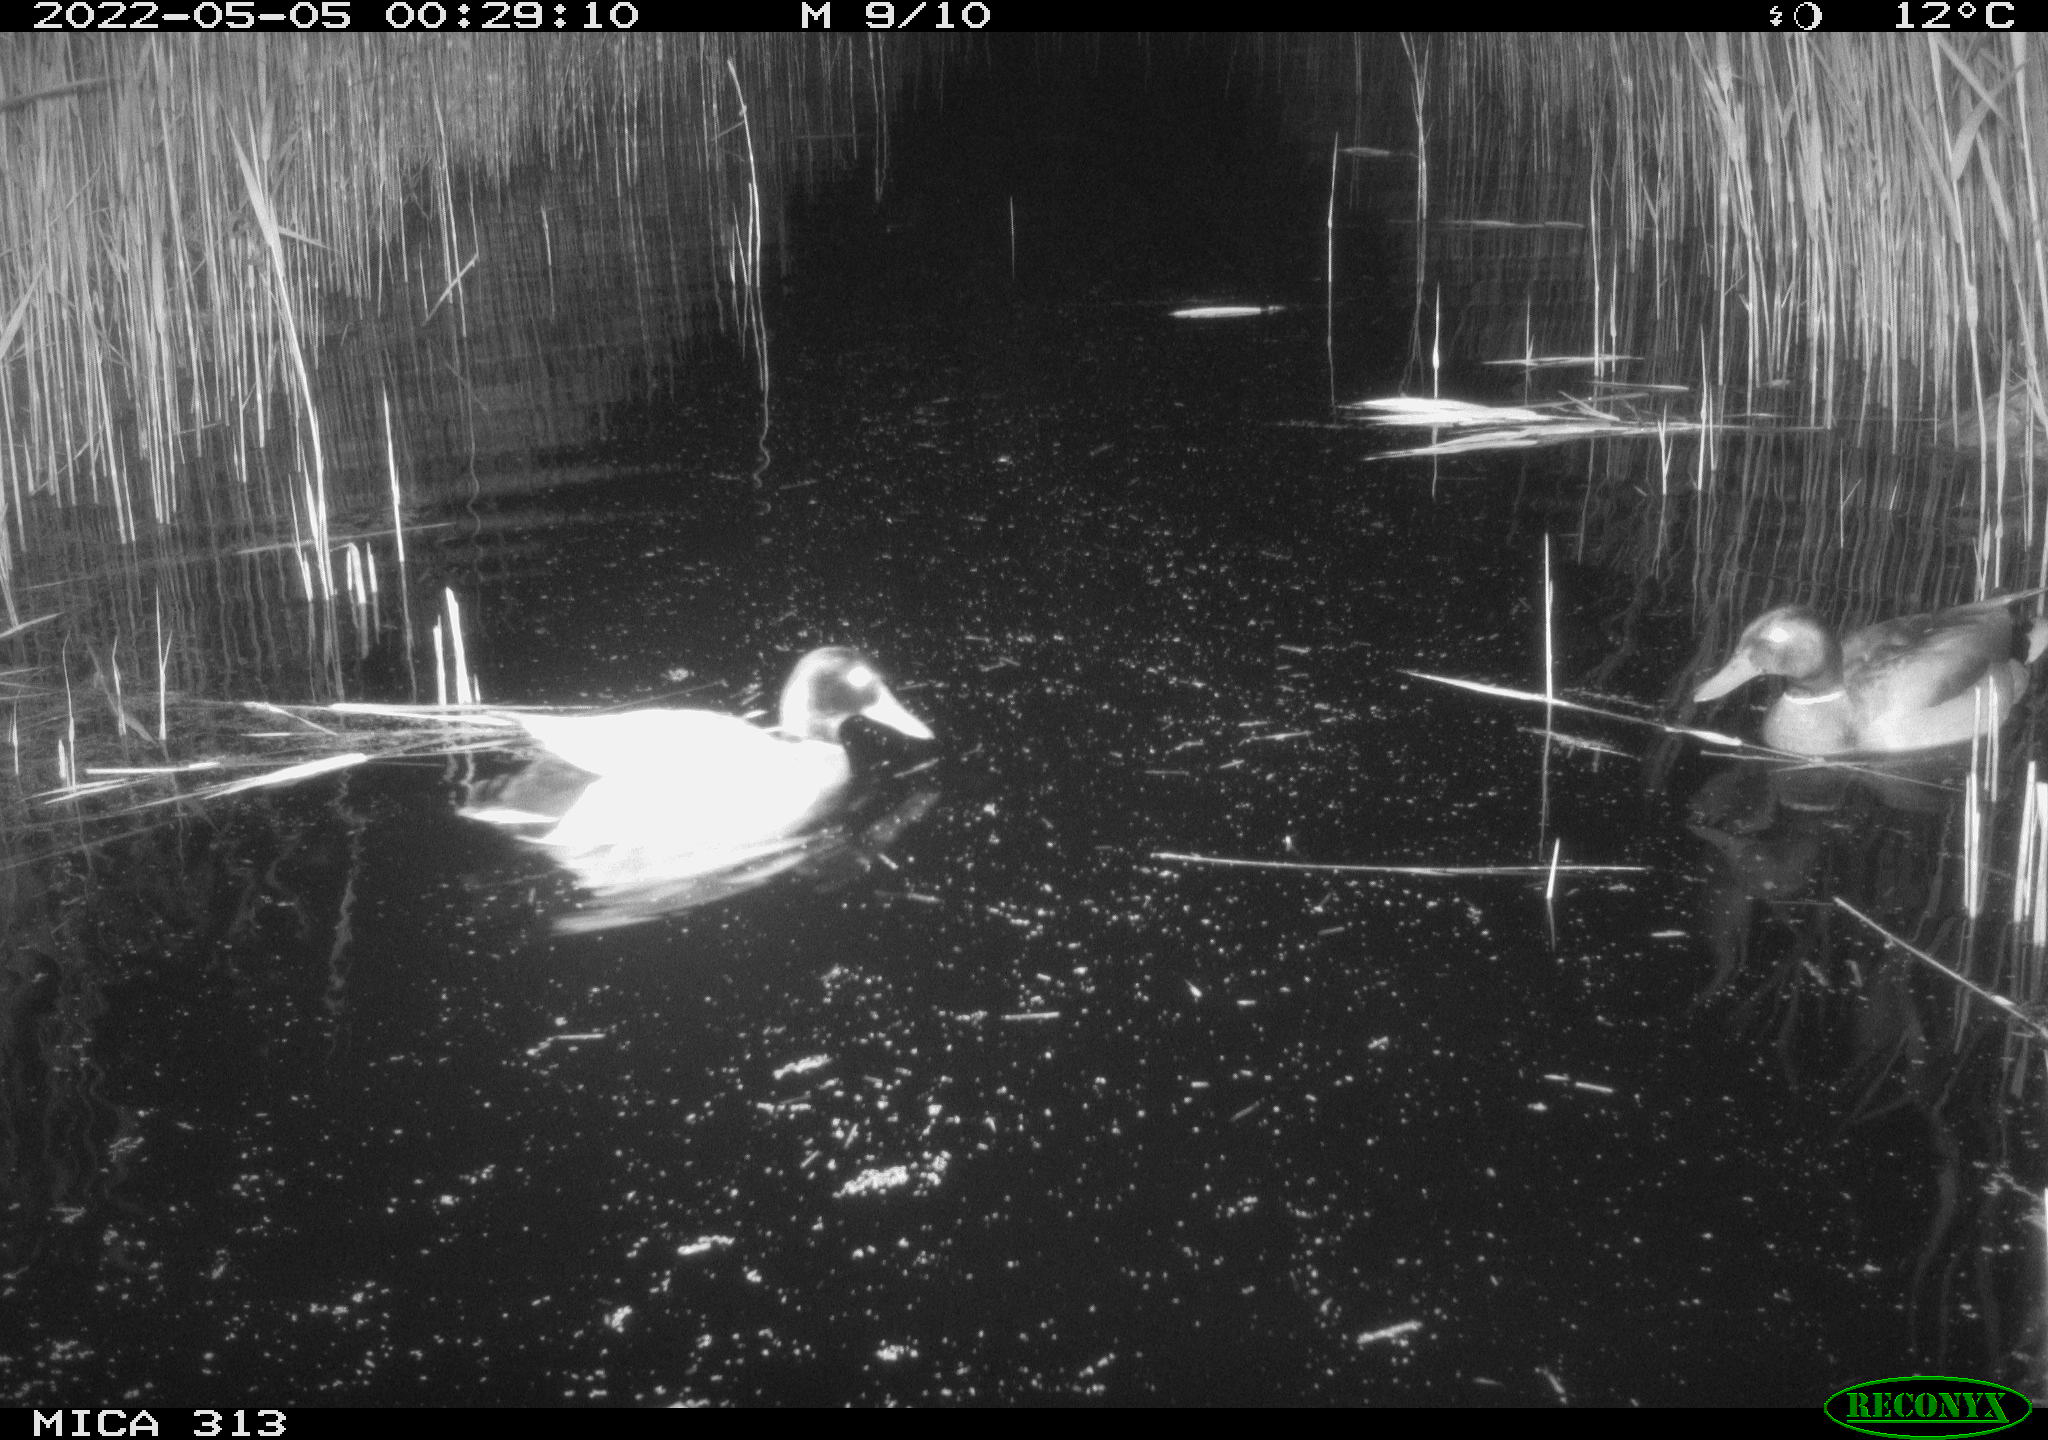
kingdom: Animalia
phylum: Chordata
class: Aves
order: Anseriformes
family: Anatidae
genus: Anas
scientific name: Anas platyrhynchos
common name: Mallard
